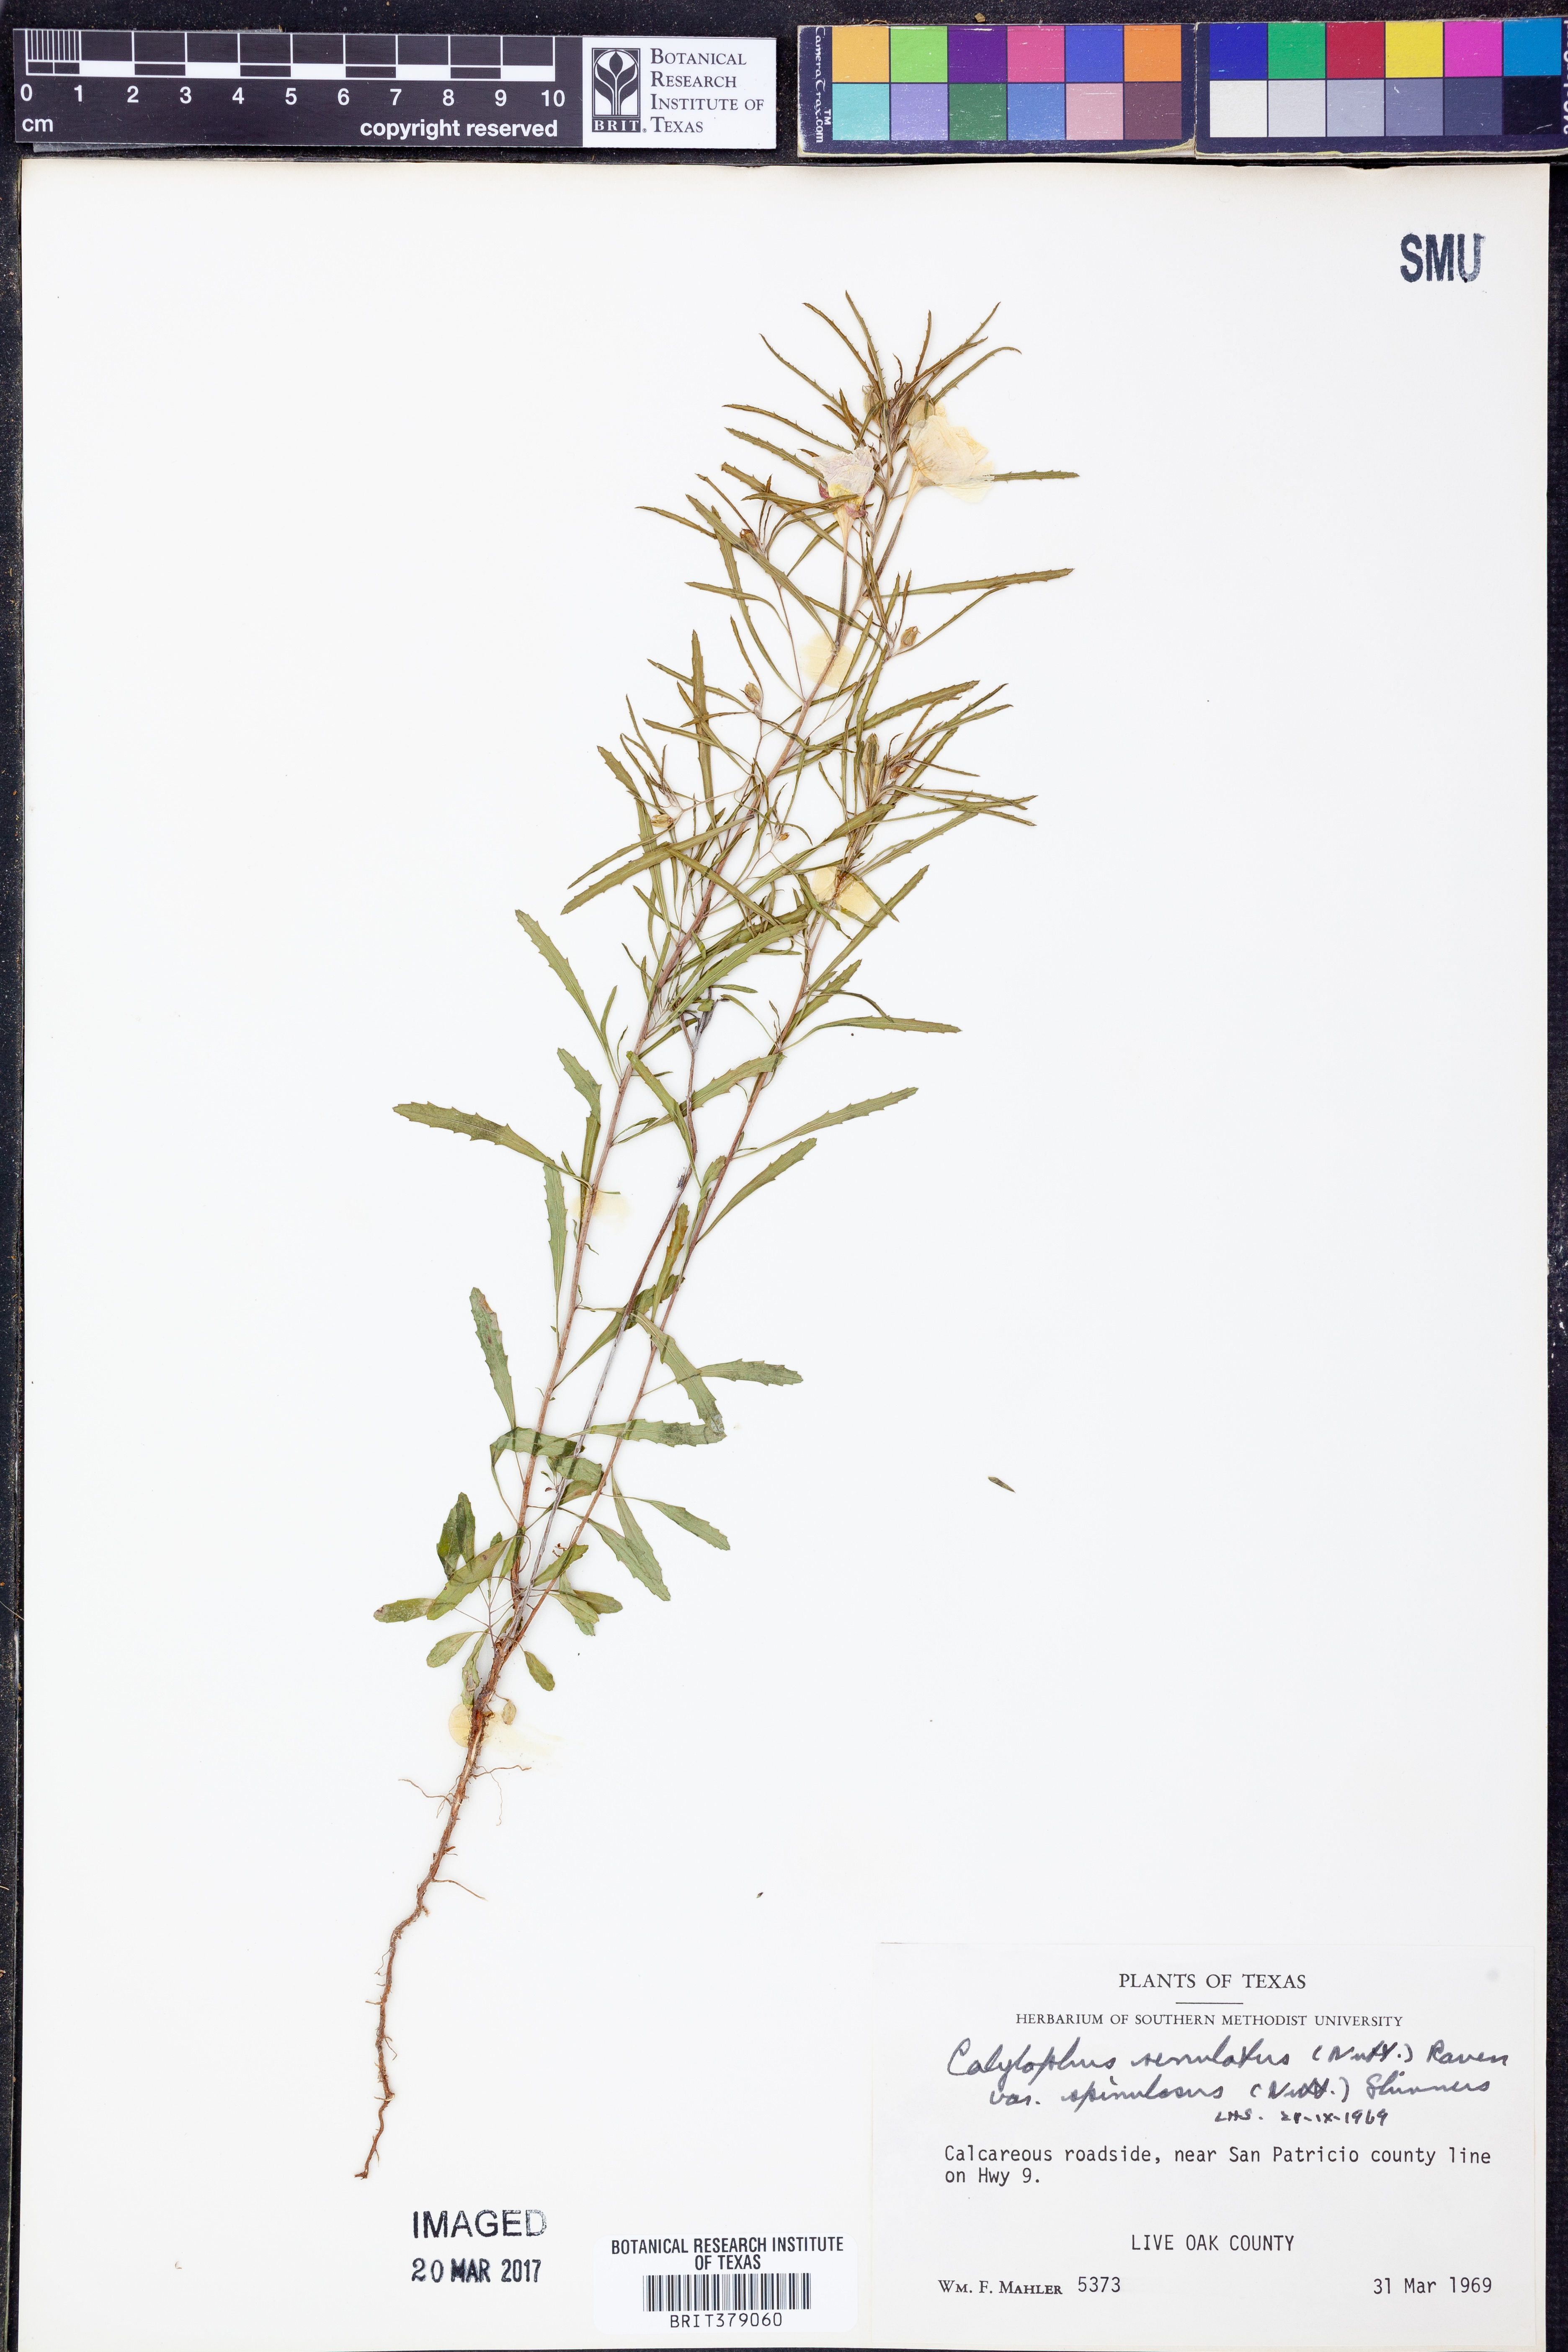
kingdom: Plantae
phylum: Tracheophyta
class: Magnoliopsida
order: Myrtales
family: Onagraceae
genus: Oenothera
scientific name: Oenothera serrulata
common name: Half-shrub calylophus
